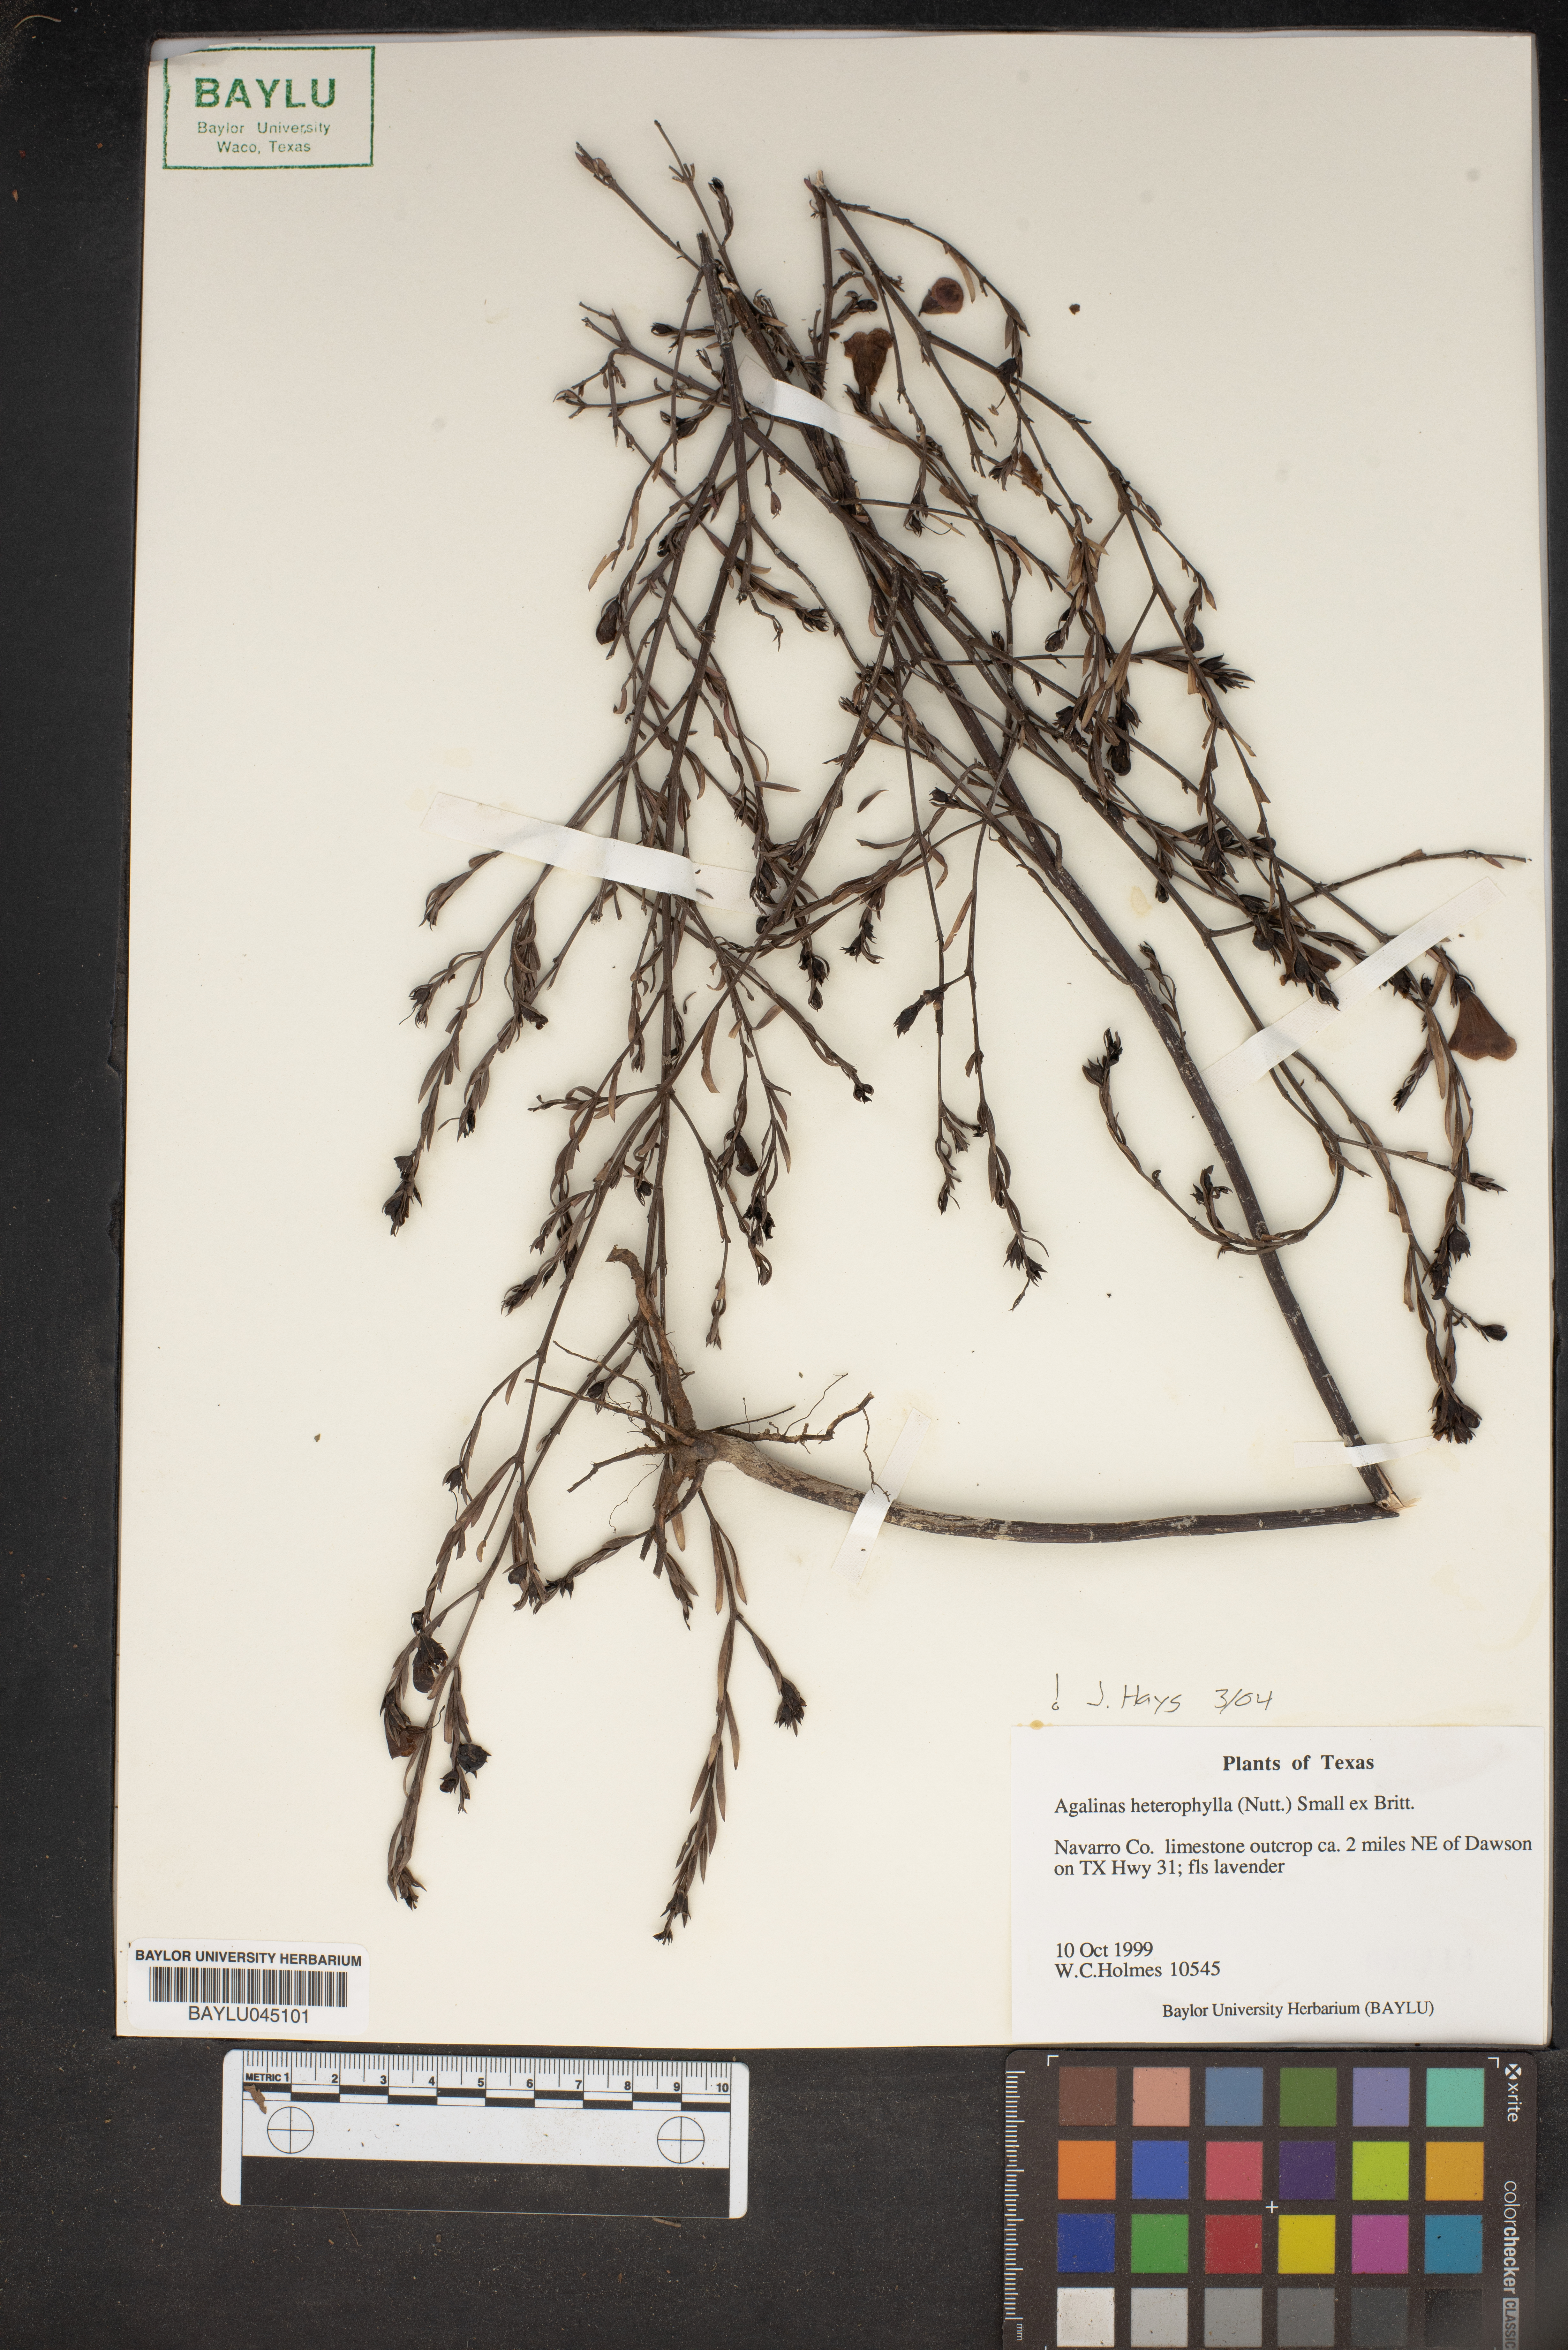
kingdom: Plantae
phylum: Tracheophyta
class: Magnoliopsida
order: Lamiales
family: Orobanchaceae
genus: Agalinis
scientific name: Agalinis heterophylla
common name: Prairie agalinis
